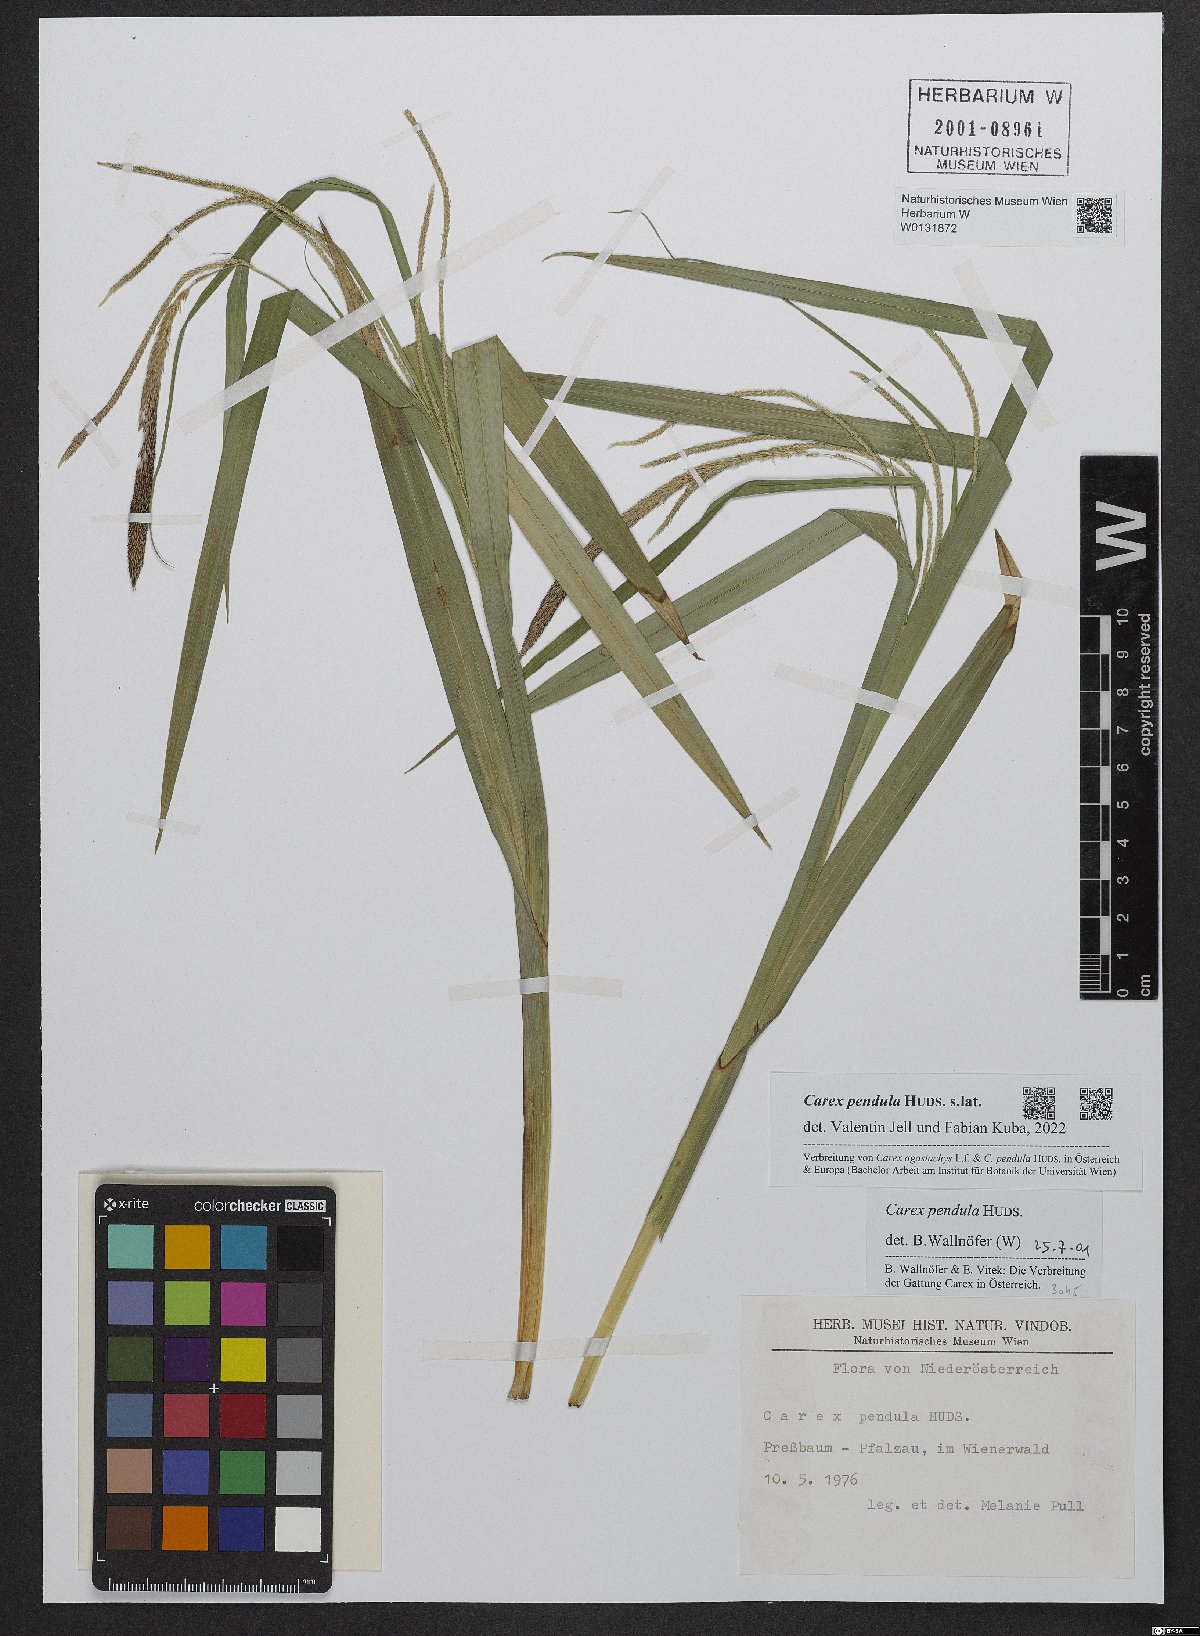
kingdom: Plantae
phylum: Tracheophyta
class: Liliopsida
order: Poales
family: Cyperaceae
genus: Carex
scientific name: Carex pendula
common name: Pendulous sedge
